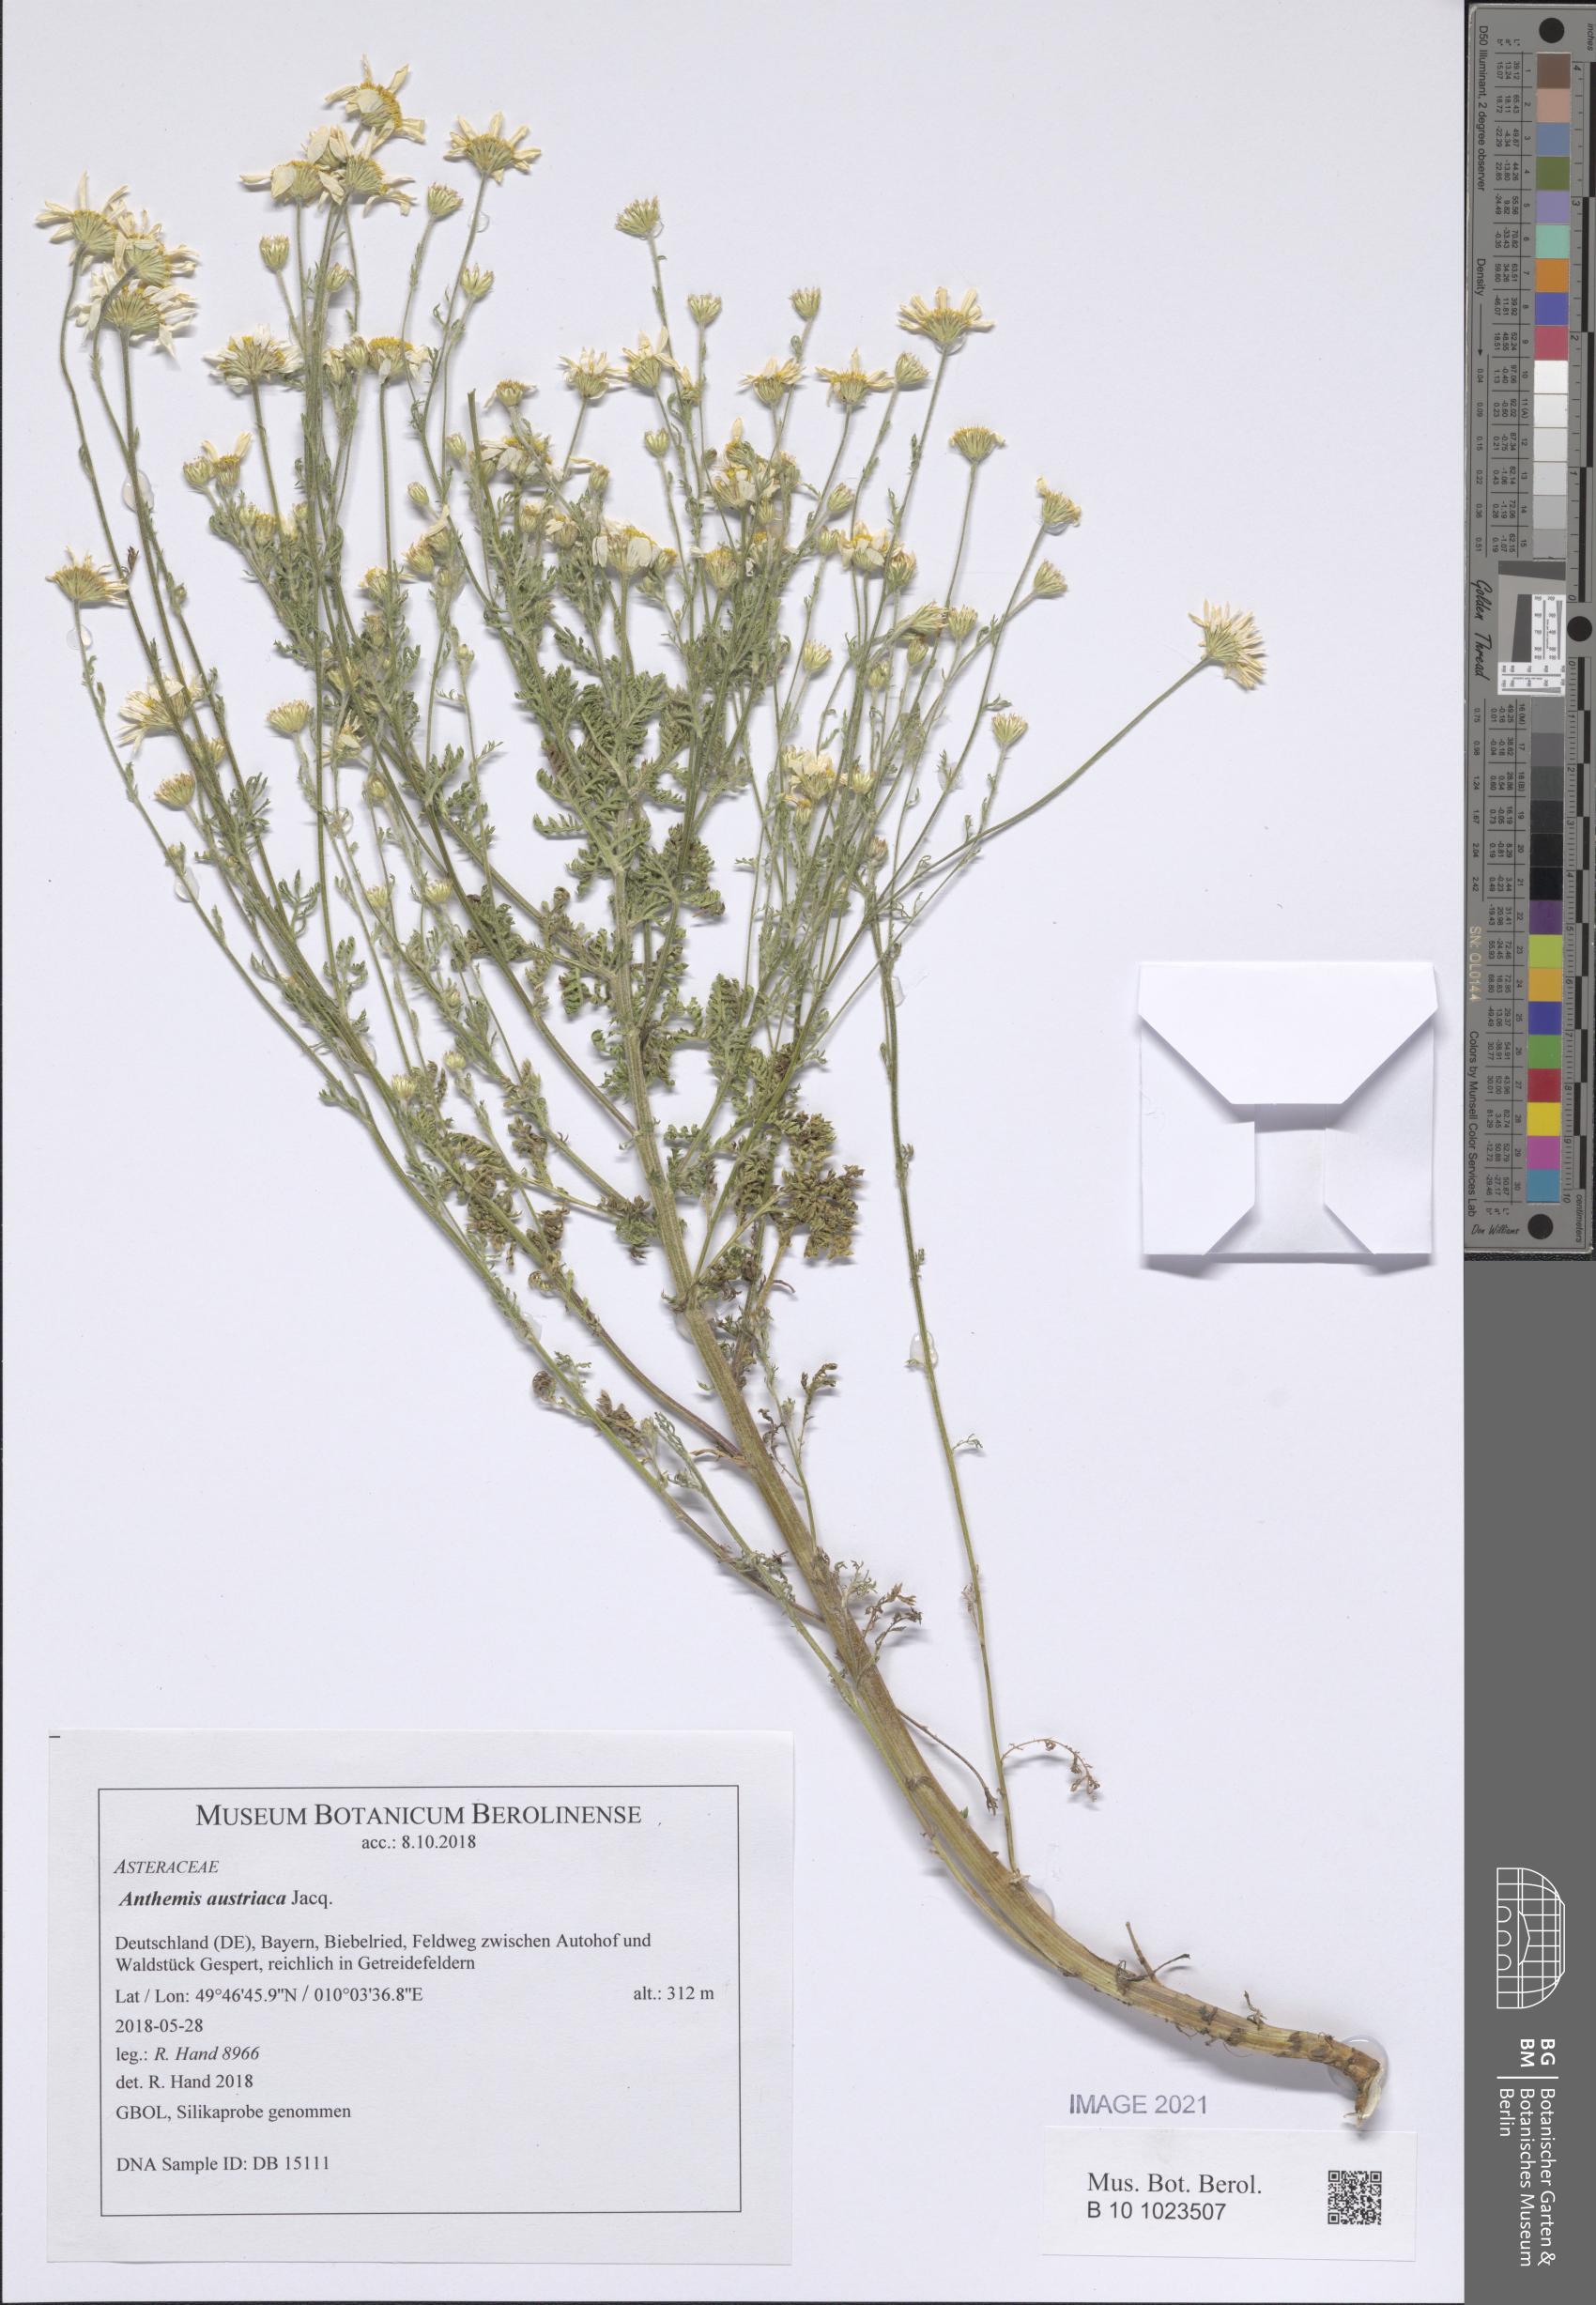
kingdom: Plantae
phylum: Tracheophyta
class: Magnoliopsida
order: Asterales
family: Asteraceae
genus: Cota
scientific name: Cota austriaca
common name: Austrian chamomile
